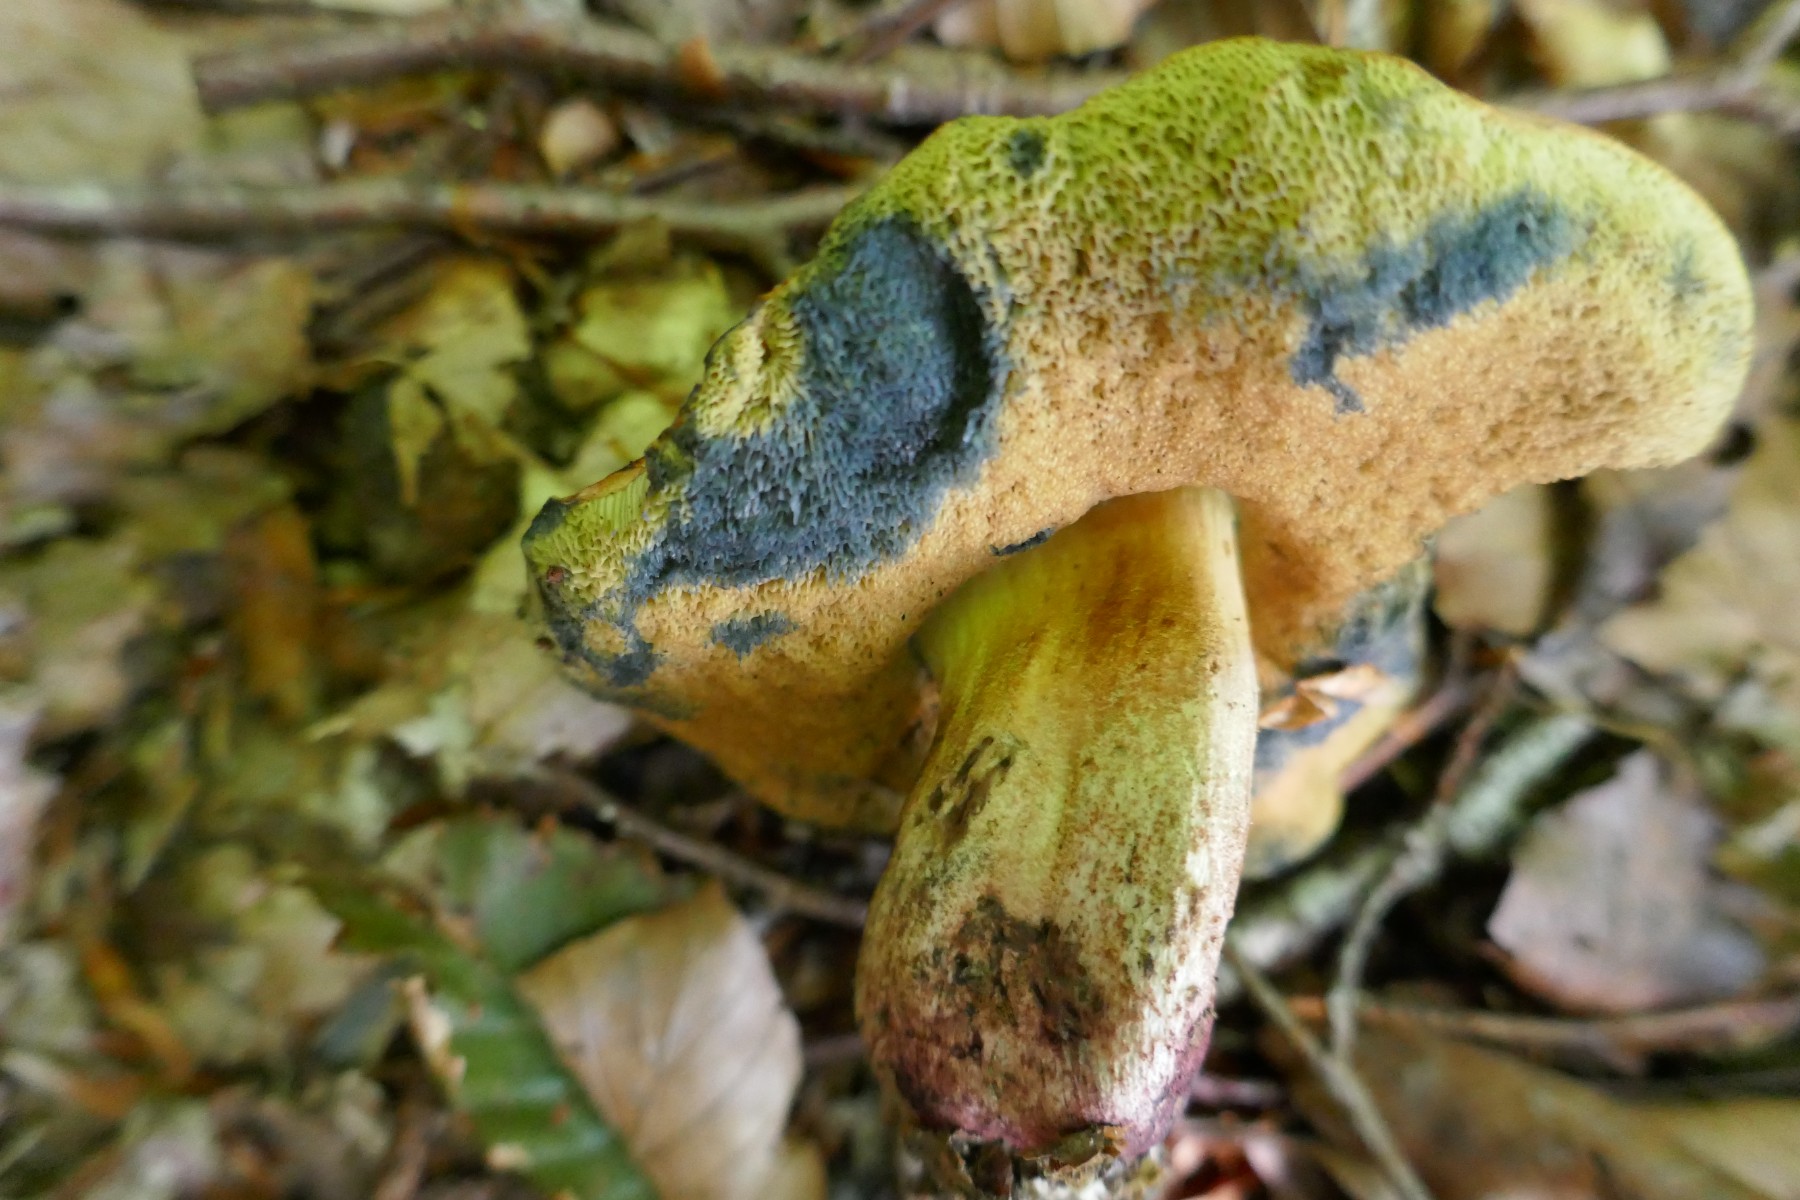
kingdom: Fungi
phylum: Basidiomycota
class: Agaricomycetes
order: Boletales
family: Boletaceae
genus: Suillellus
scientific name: Suillellus queletii
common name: glatstokket indigorørhat
